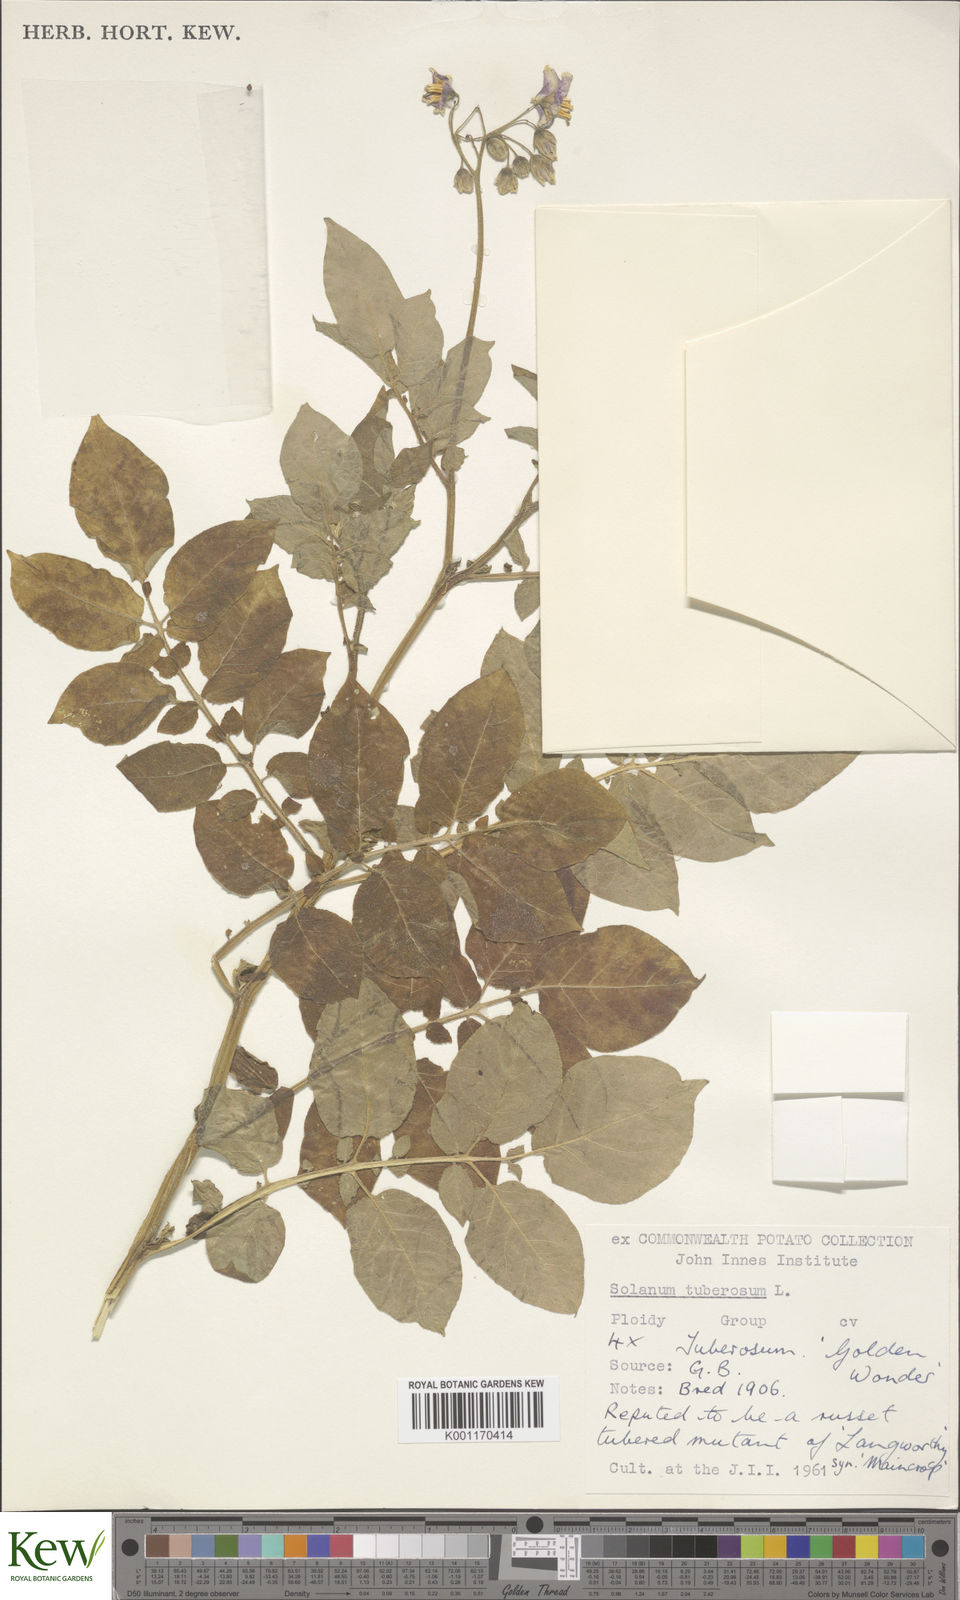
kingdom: Plantae
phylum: Tracheophyta
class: Magnoliopsida
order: Solanales
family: Solanaceae
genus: Solanum
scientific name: Solanum tuberosum
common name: Potato
